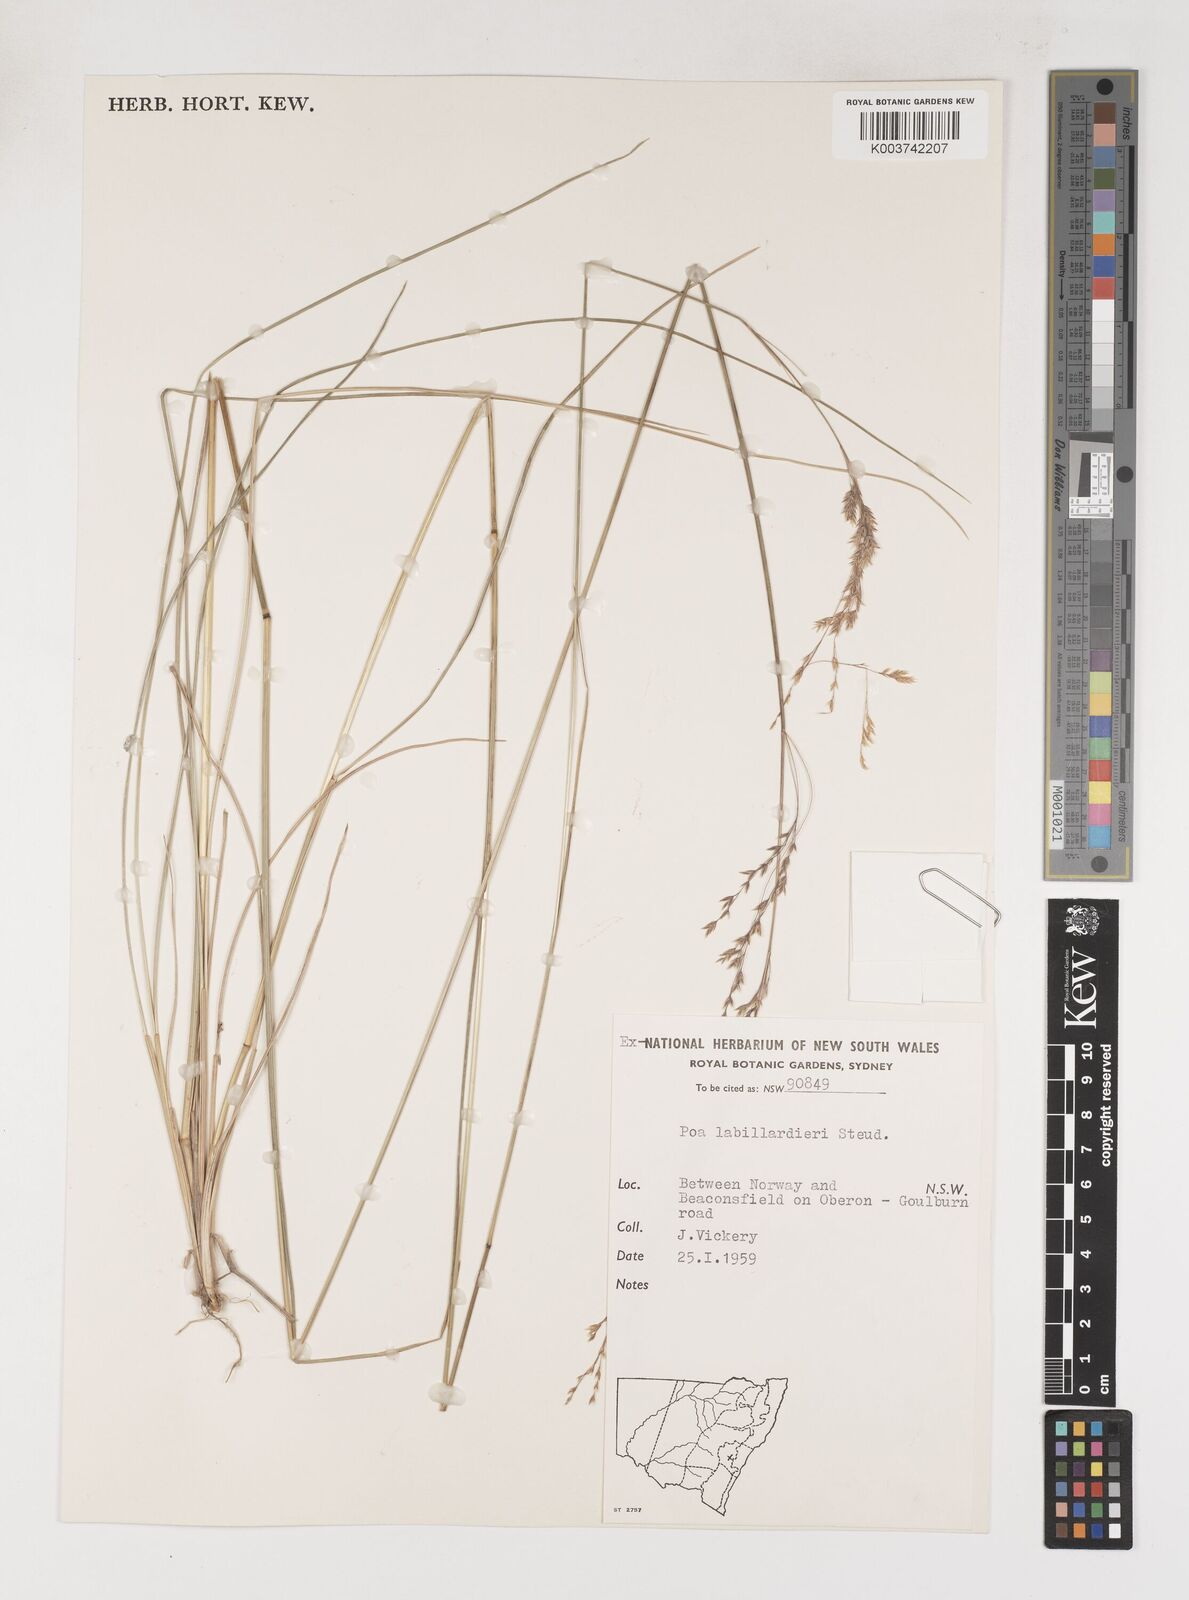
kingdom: Plantae
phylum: Tracheophyta
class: Liliopsida
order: Poales
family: Poaceae
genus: Poa
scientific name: Poa labillardierei
